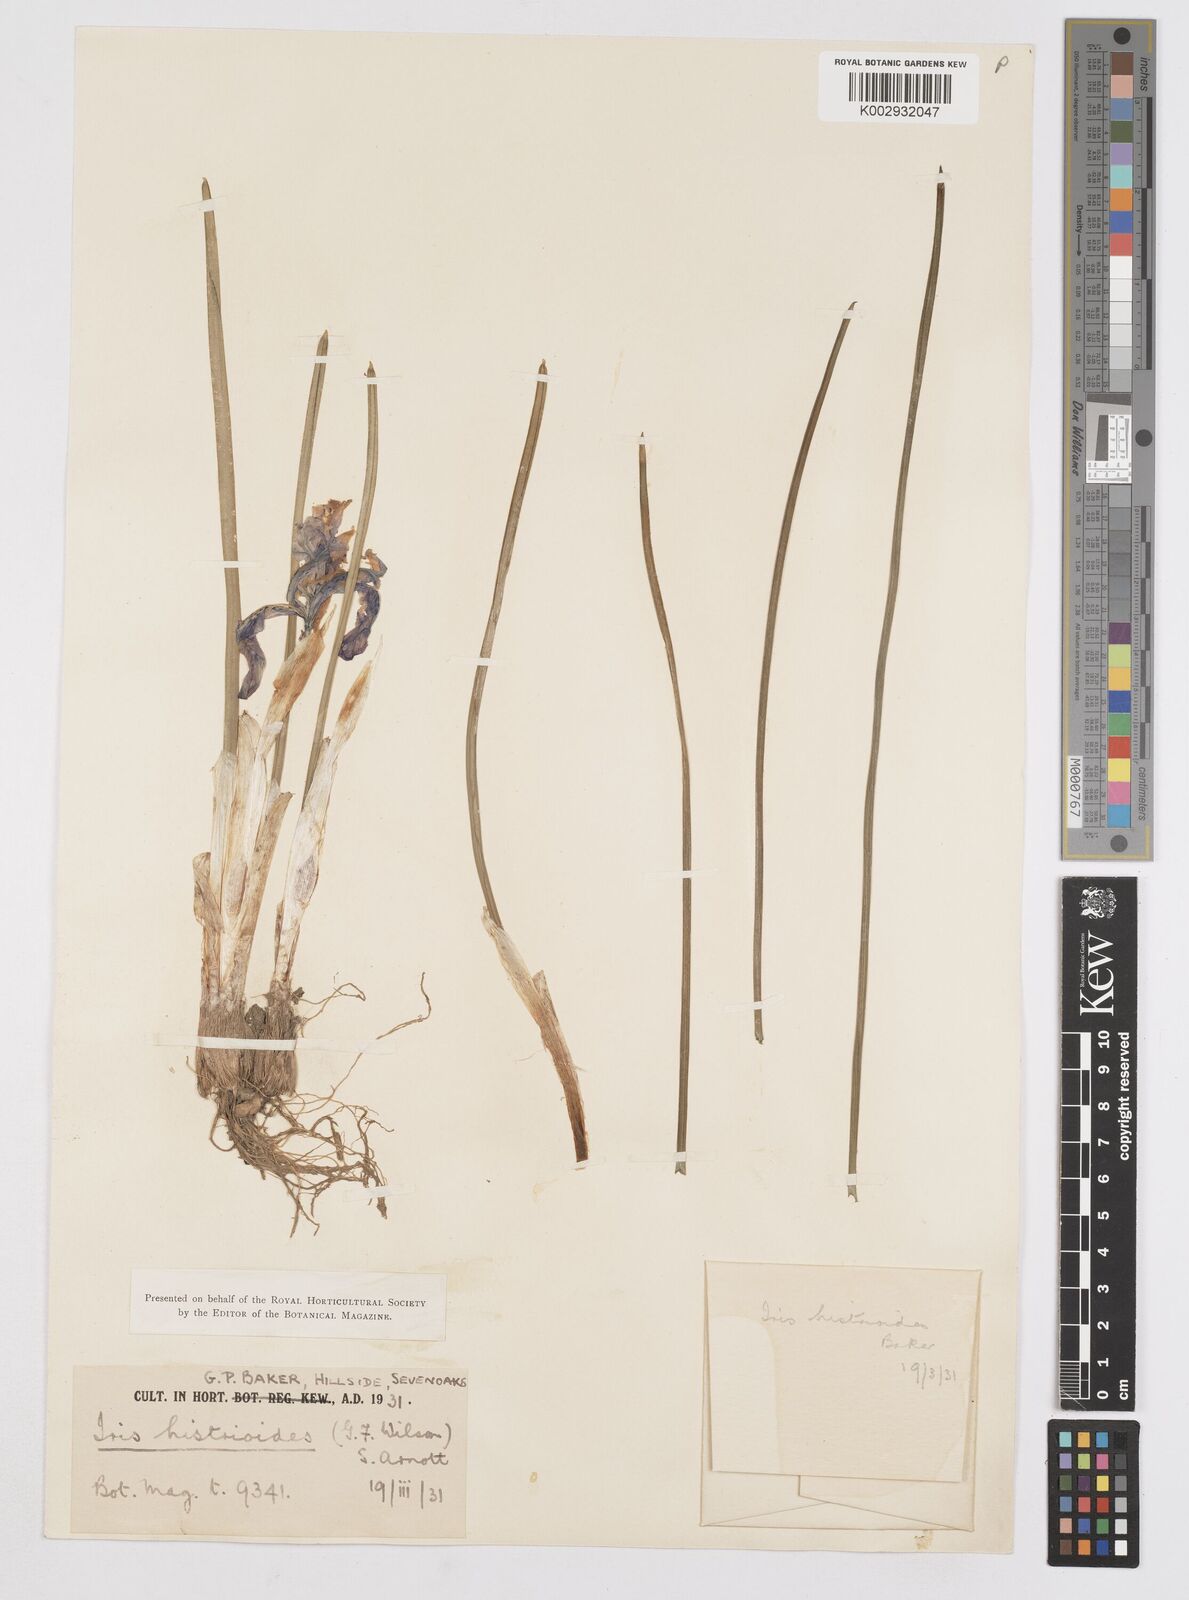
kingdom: Plantae
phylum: Tracheophyta
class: Liliopsida
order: Asparagales
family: Iridaceae
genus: Iris
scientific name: Iris histrioides
